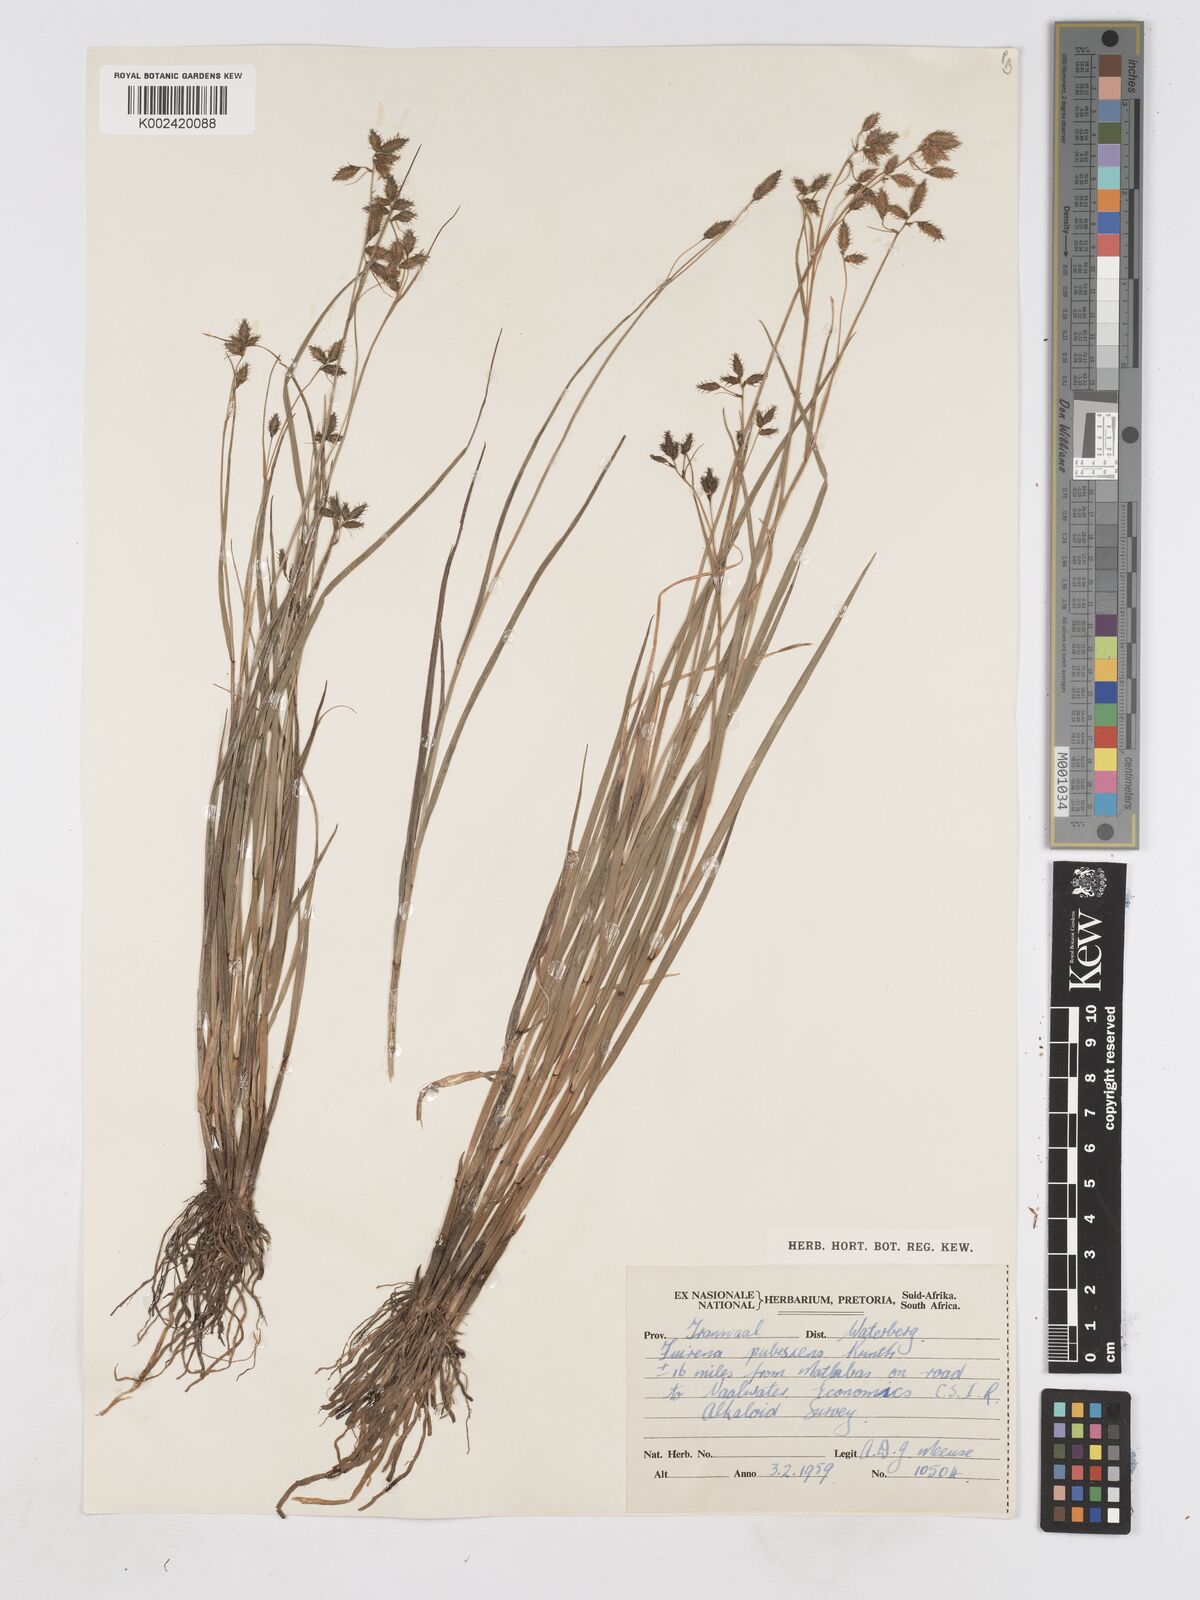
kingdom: Plantae
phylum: Tracheophyta
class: Liliopsida
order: Poales
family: Cyperaceae
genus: Fuirena
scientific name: Fuirena pubescens
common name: Hairy sedge
